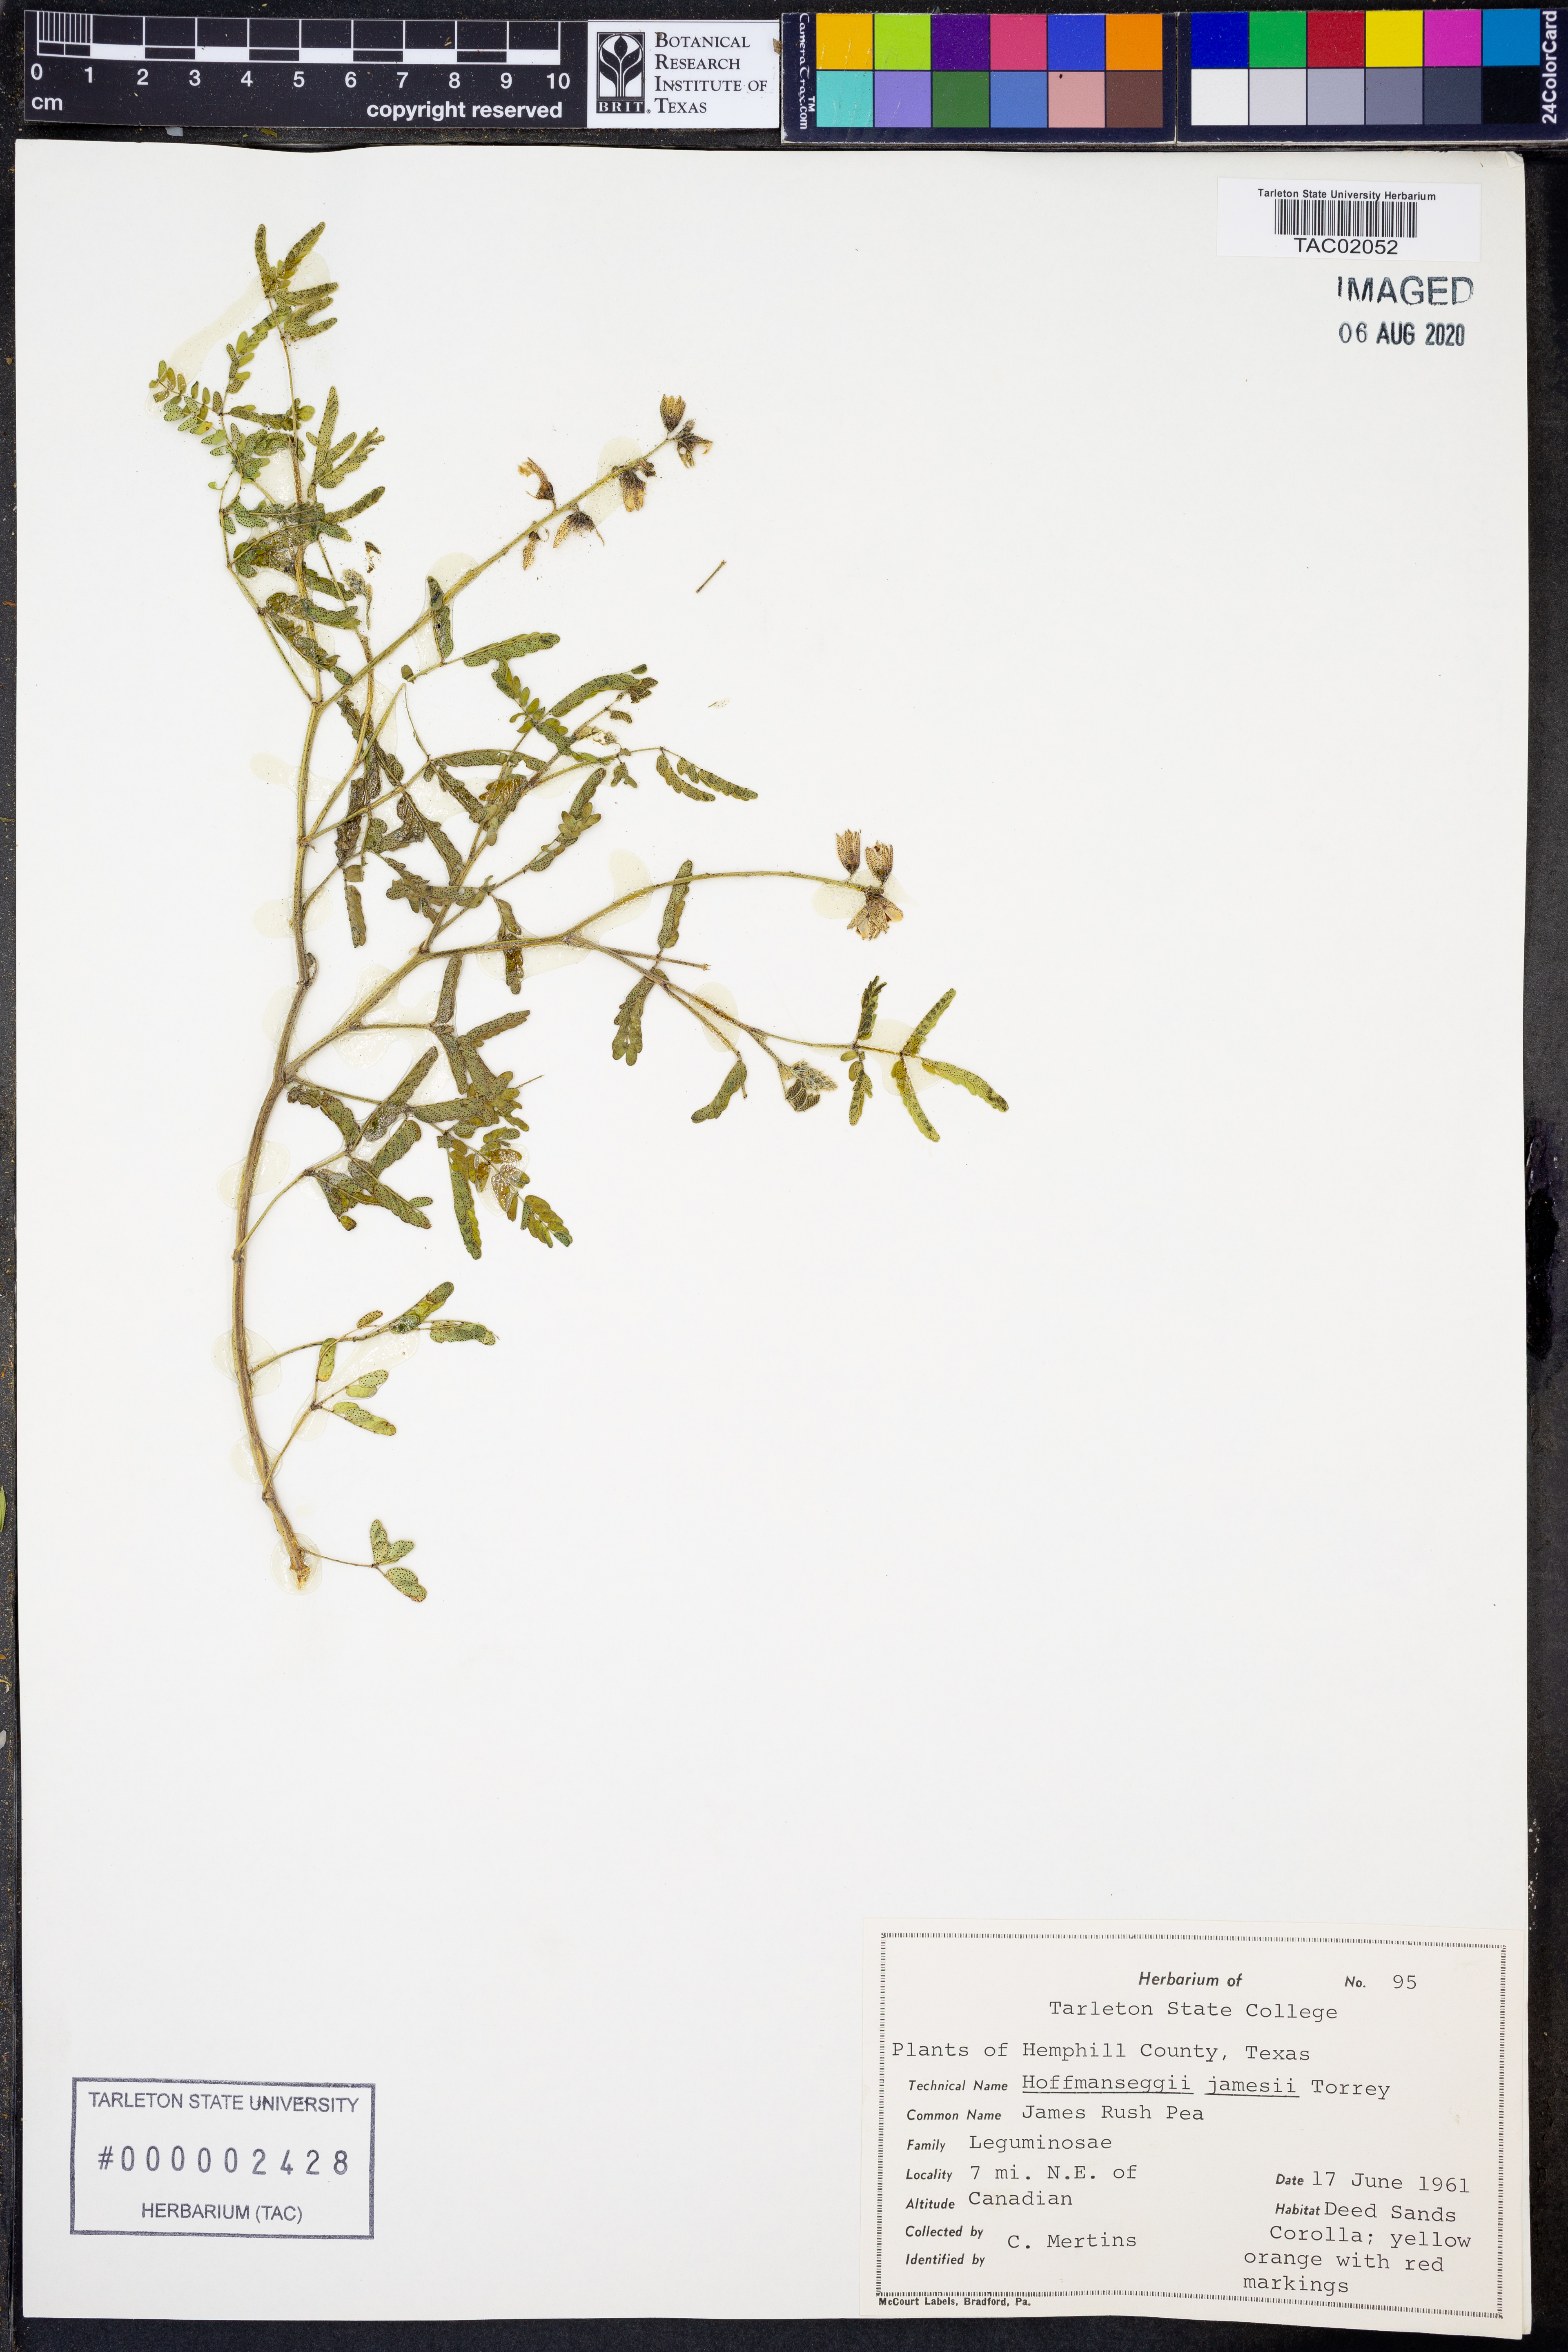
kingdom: Plantae
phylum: Tracheophyta
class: Magnoliopsida
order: Fabales
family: Fabaceae
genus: Pomaria
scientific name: Pomaria jamesii
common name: James' caesalpinia
